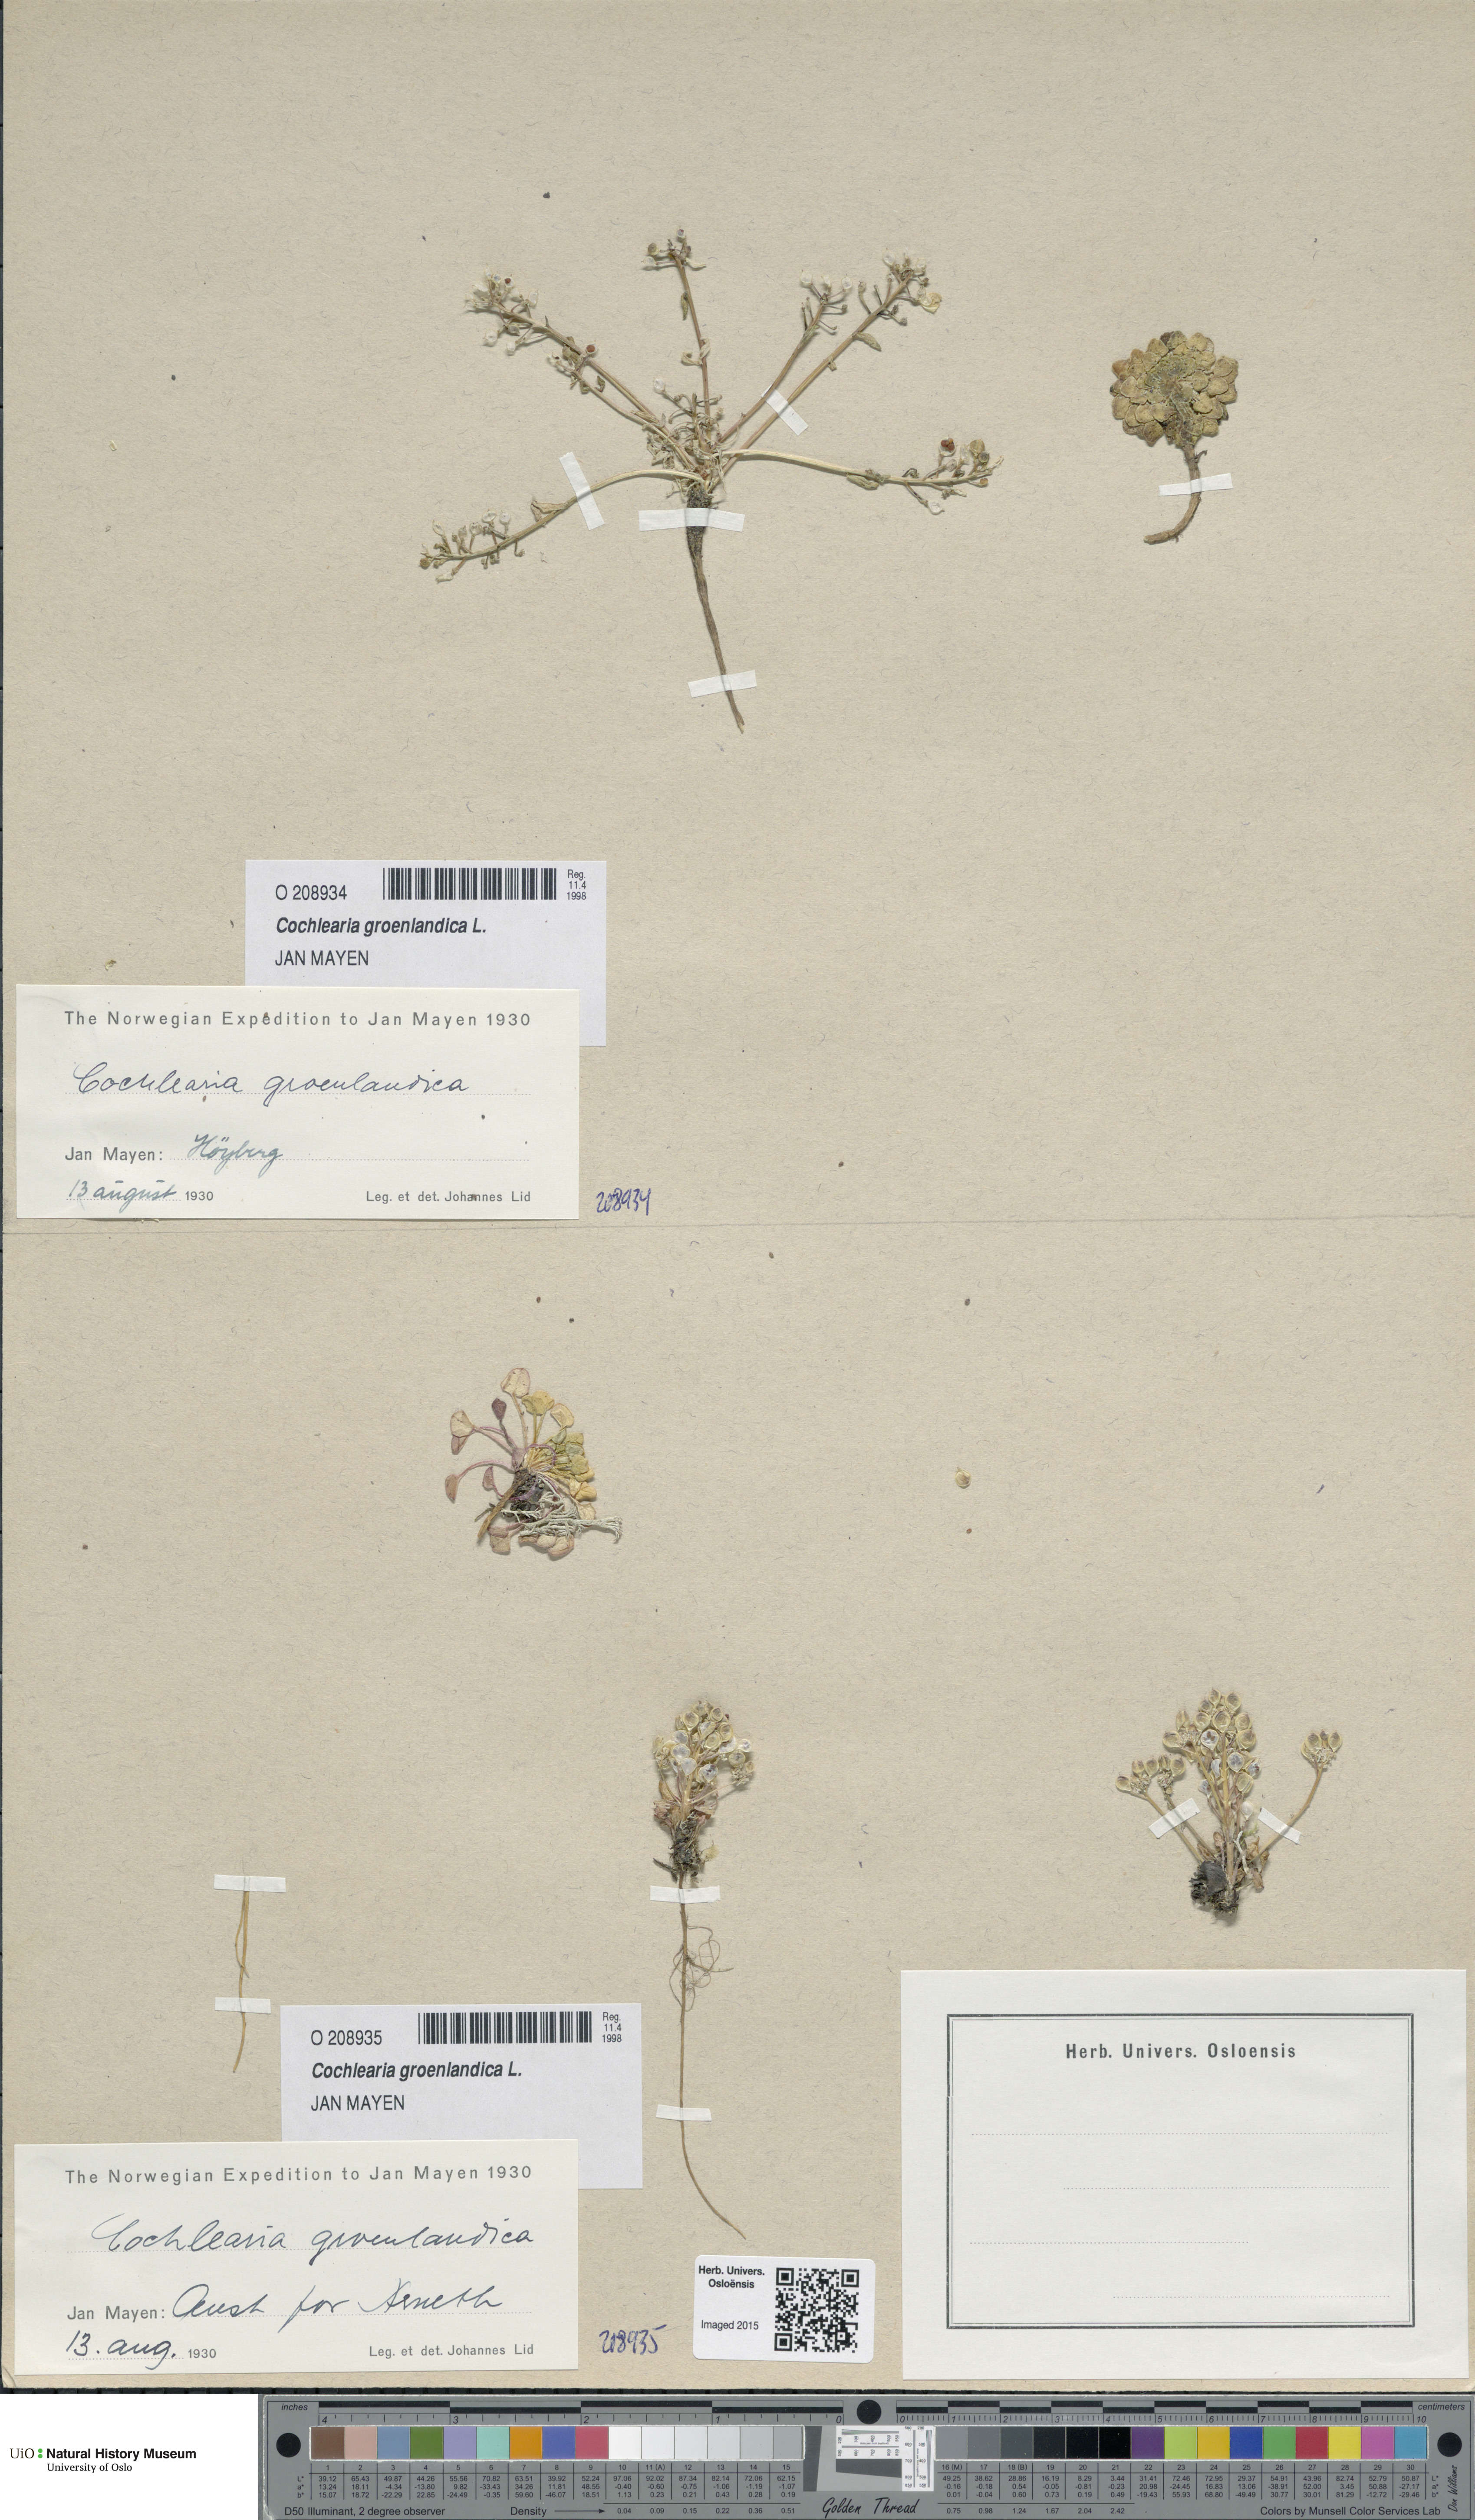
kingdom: Plantae
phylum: Tracheophyta
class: Magnoliopsida
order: Brassicales
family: Brassicaceae
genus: Cochlearia
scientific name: Cochlearia groenlandica
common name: Danish scurvygrass
